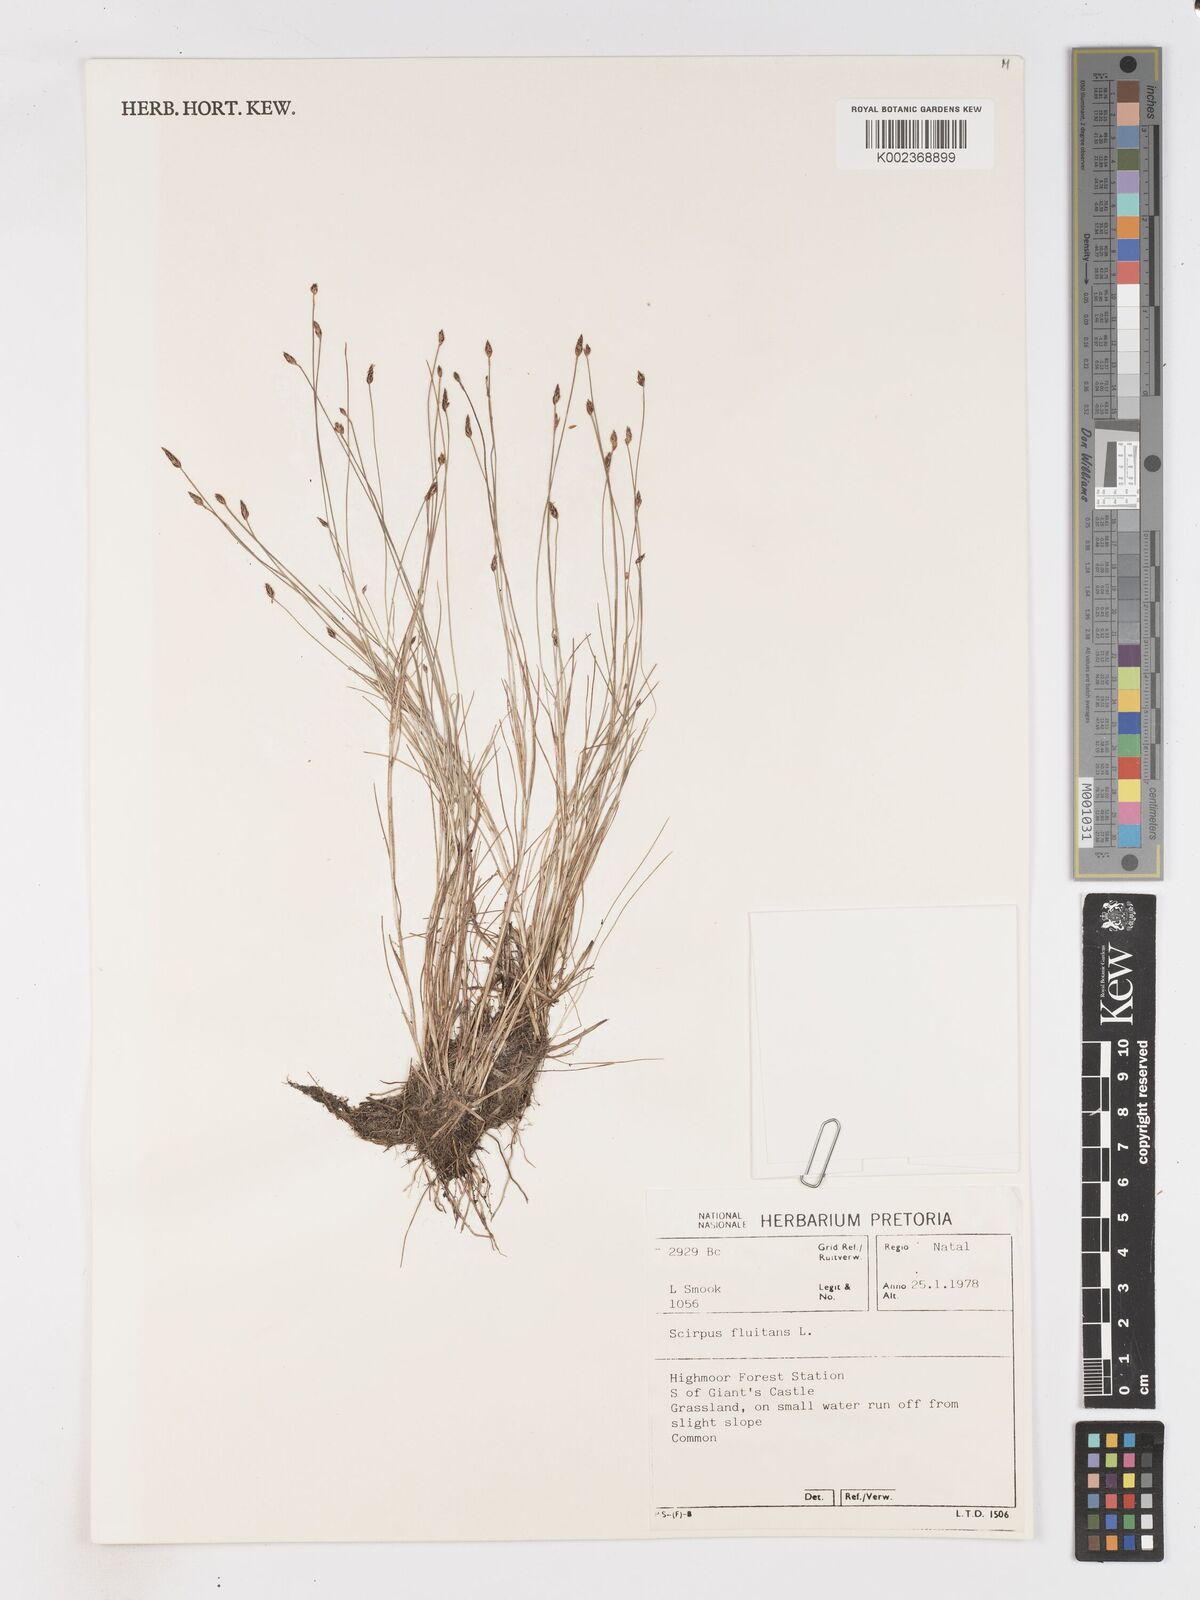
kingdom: Plantae
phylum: Tracheophyta
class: Liliopsida
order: Poales
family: Cyperaceae
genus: Isolepis
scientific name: Isolepis fluitans
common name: Floating club-rush
